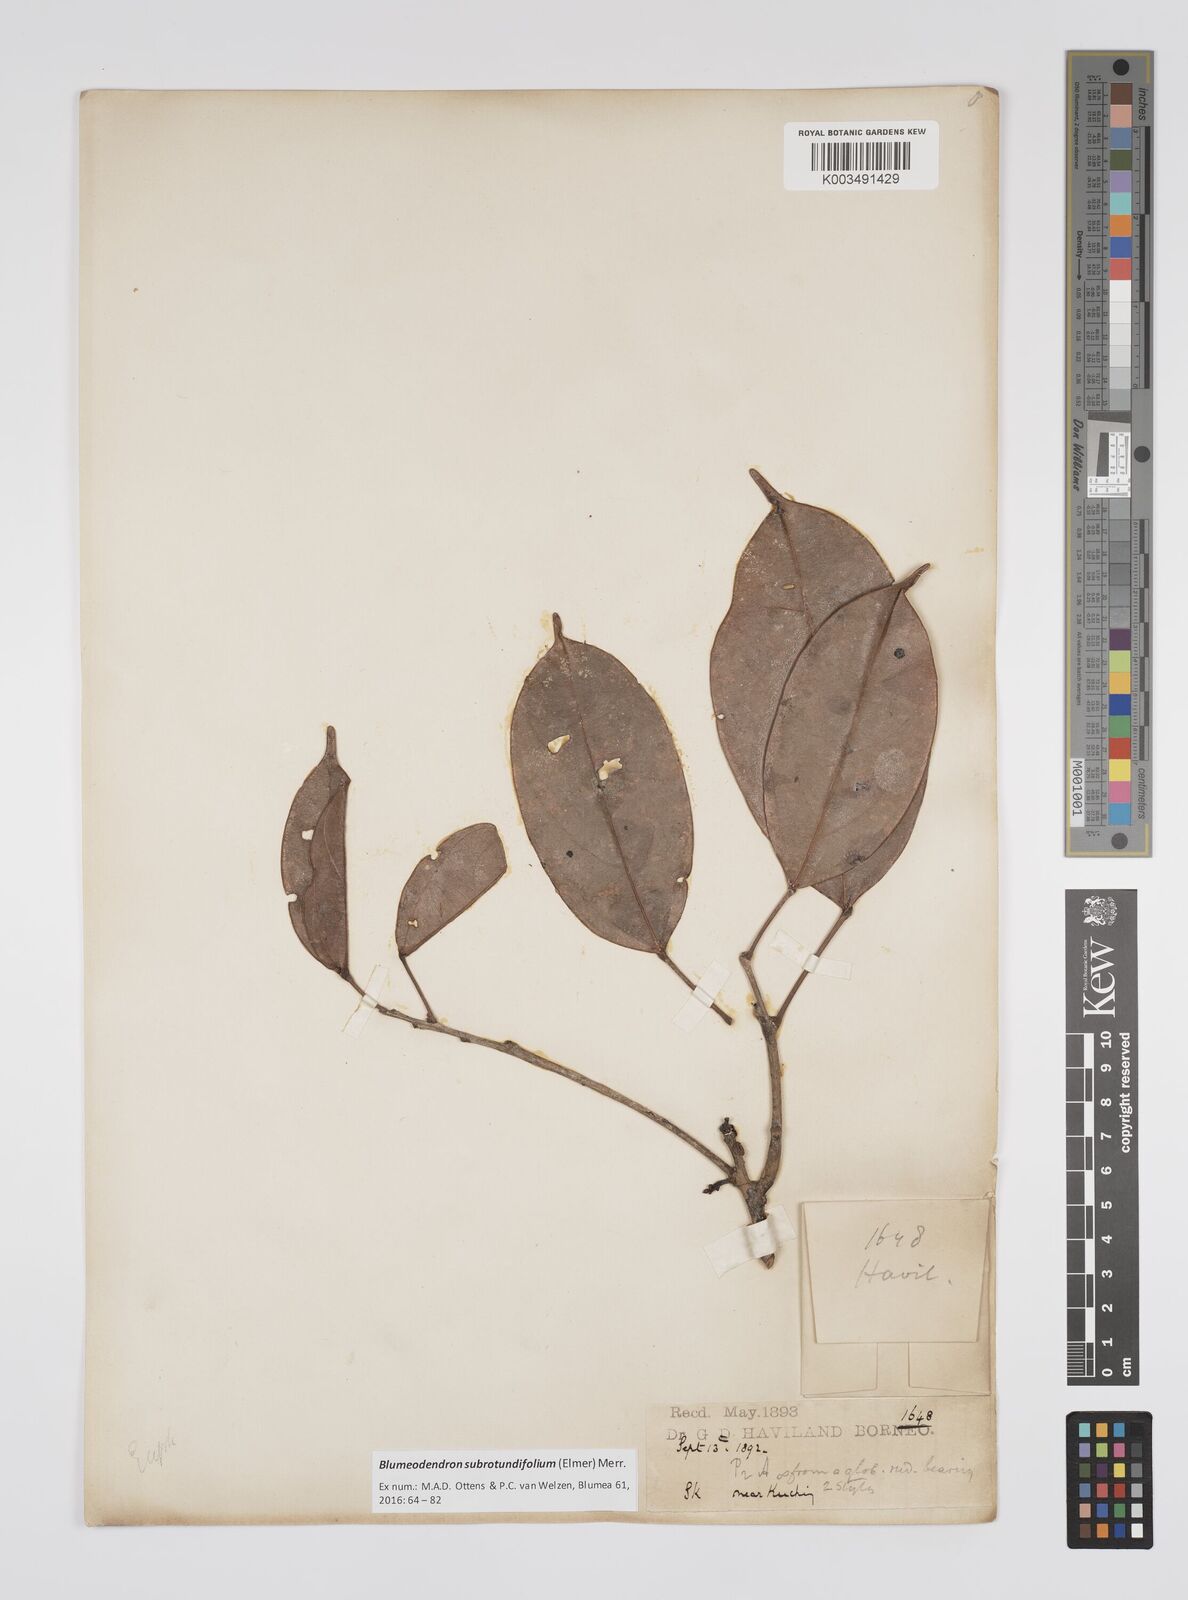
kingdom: Plantae
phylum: Tracheophyta
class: Magnoliopsida
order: Malpighiales
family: Euphorbiaceae
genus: Blumeodendron
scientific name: Blumeodendron subrotundifolium
